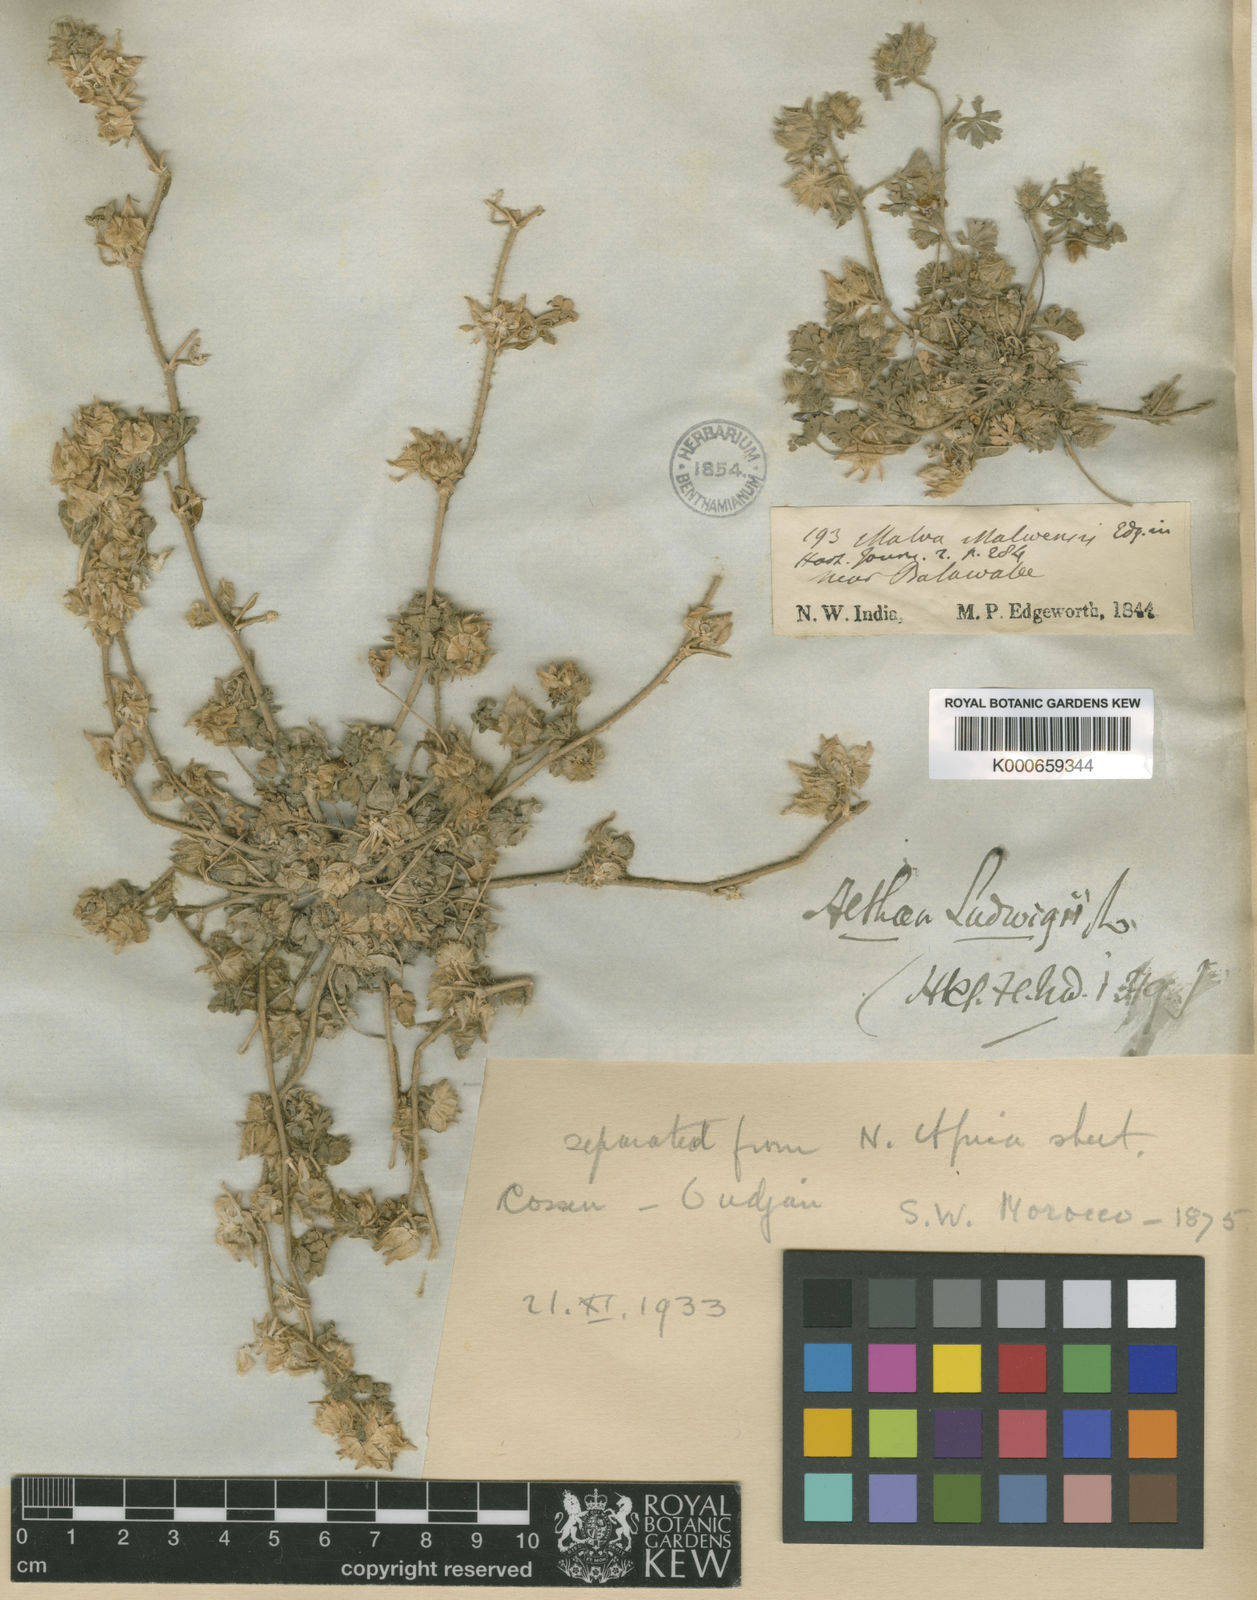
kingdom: Plantae
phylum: Tracheophyta
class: Magnoliopsida
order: Malvales
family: Malvaceae
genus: Malva
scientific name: Malva ludwigii
